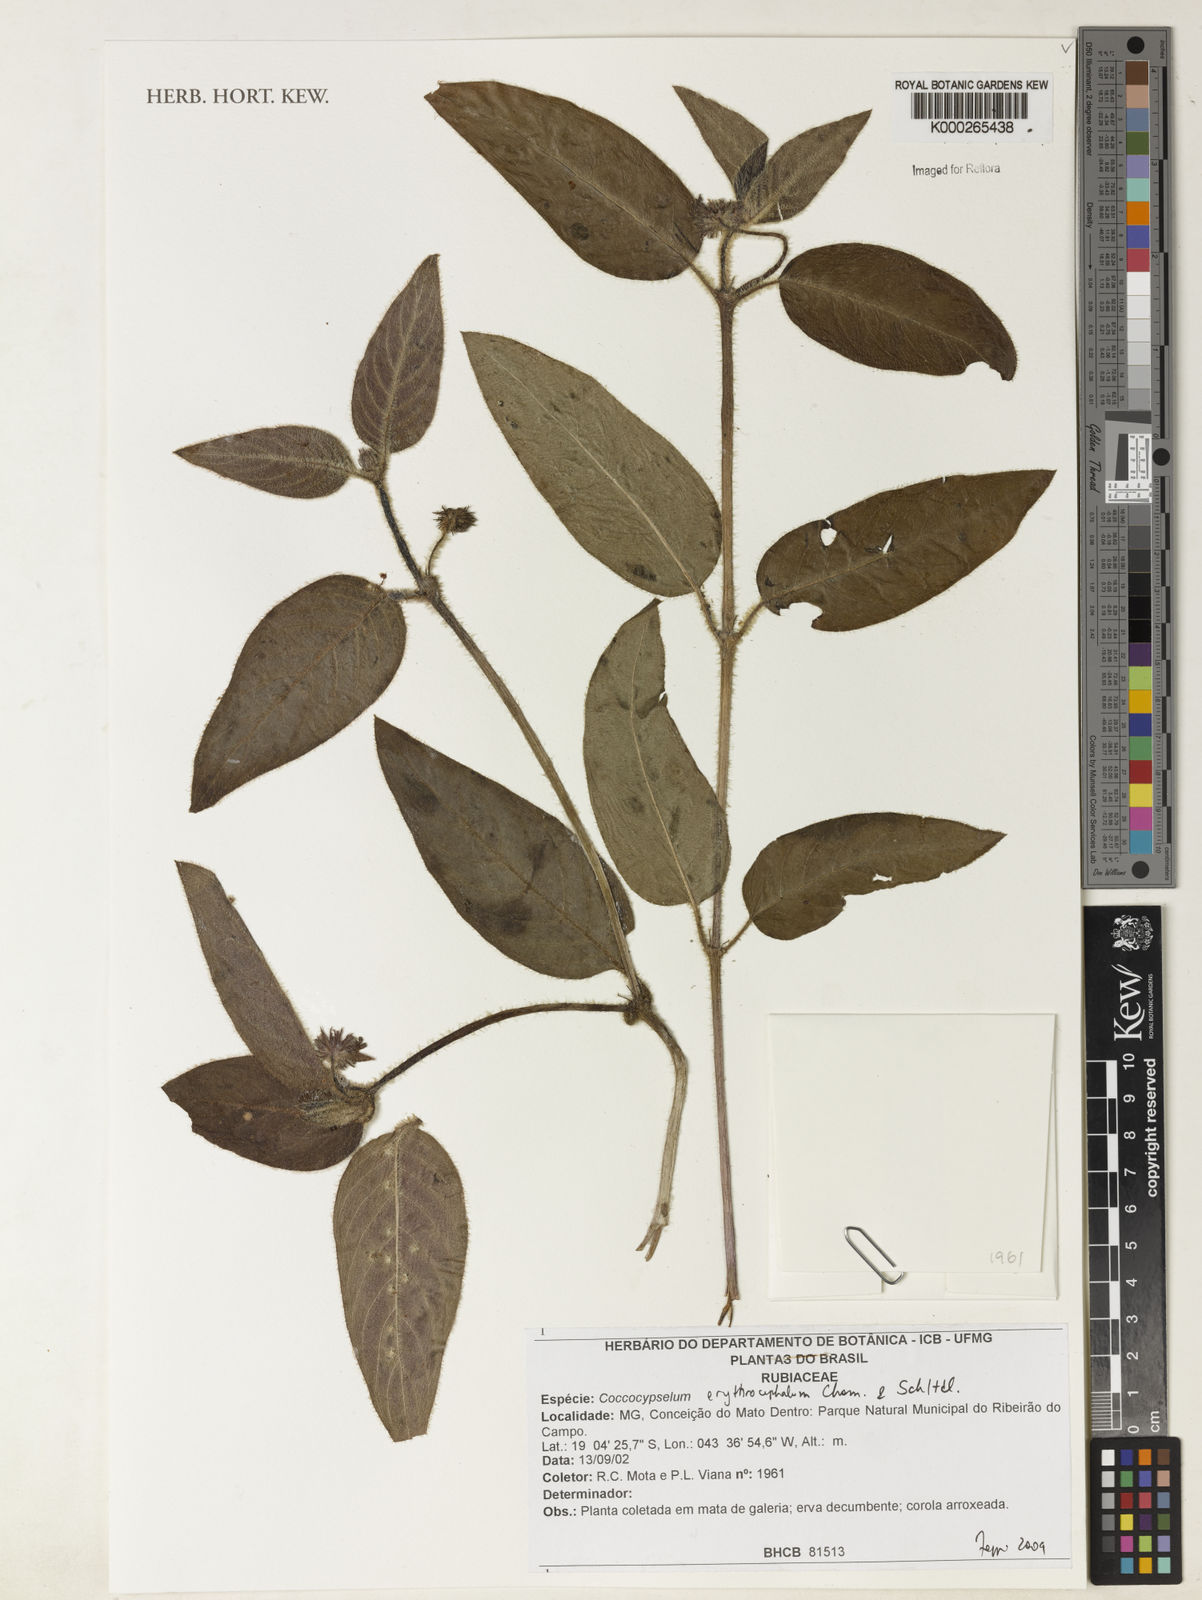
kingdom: Plantae
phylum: Tracheophyta
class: Magnoliopsida
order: Gentianales
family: Rubiaceae
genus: Coccocypselum
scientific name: Coccocypselum erythrocephalum
